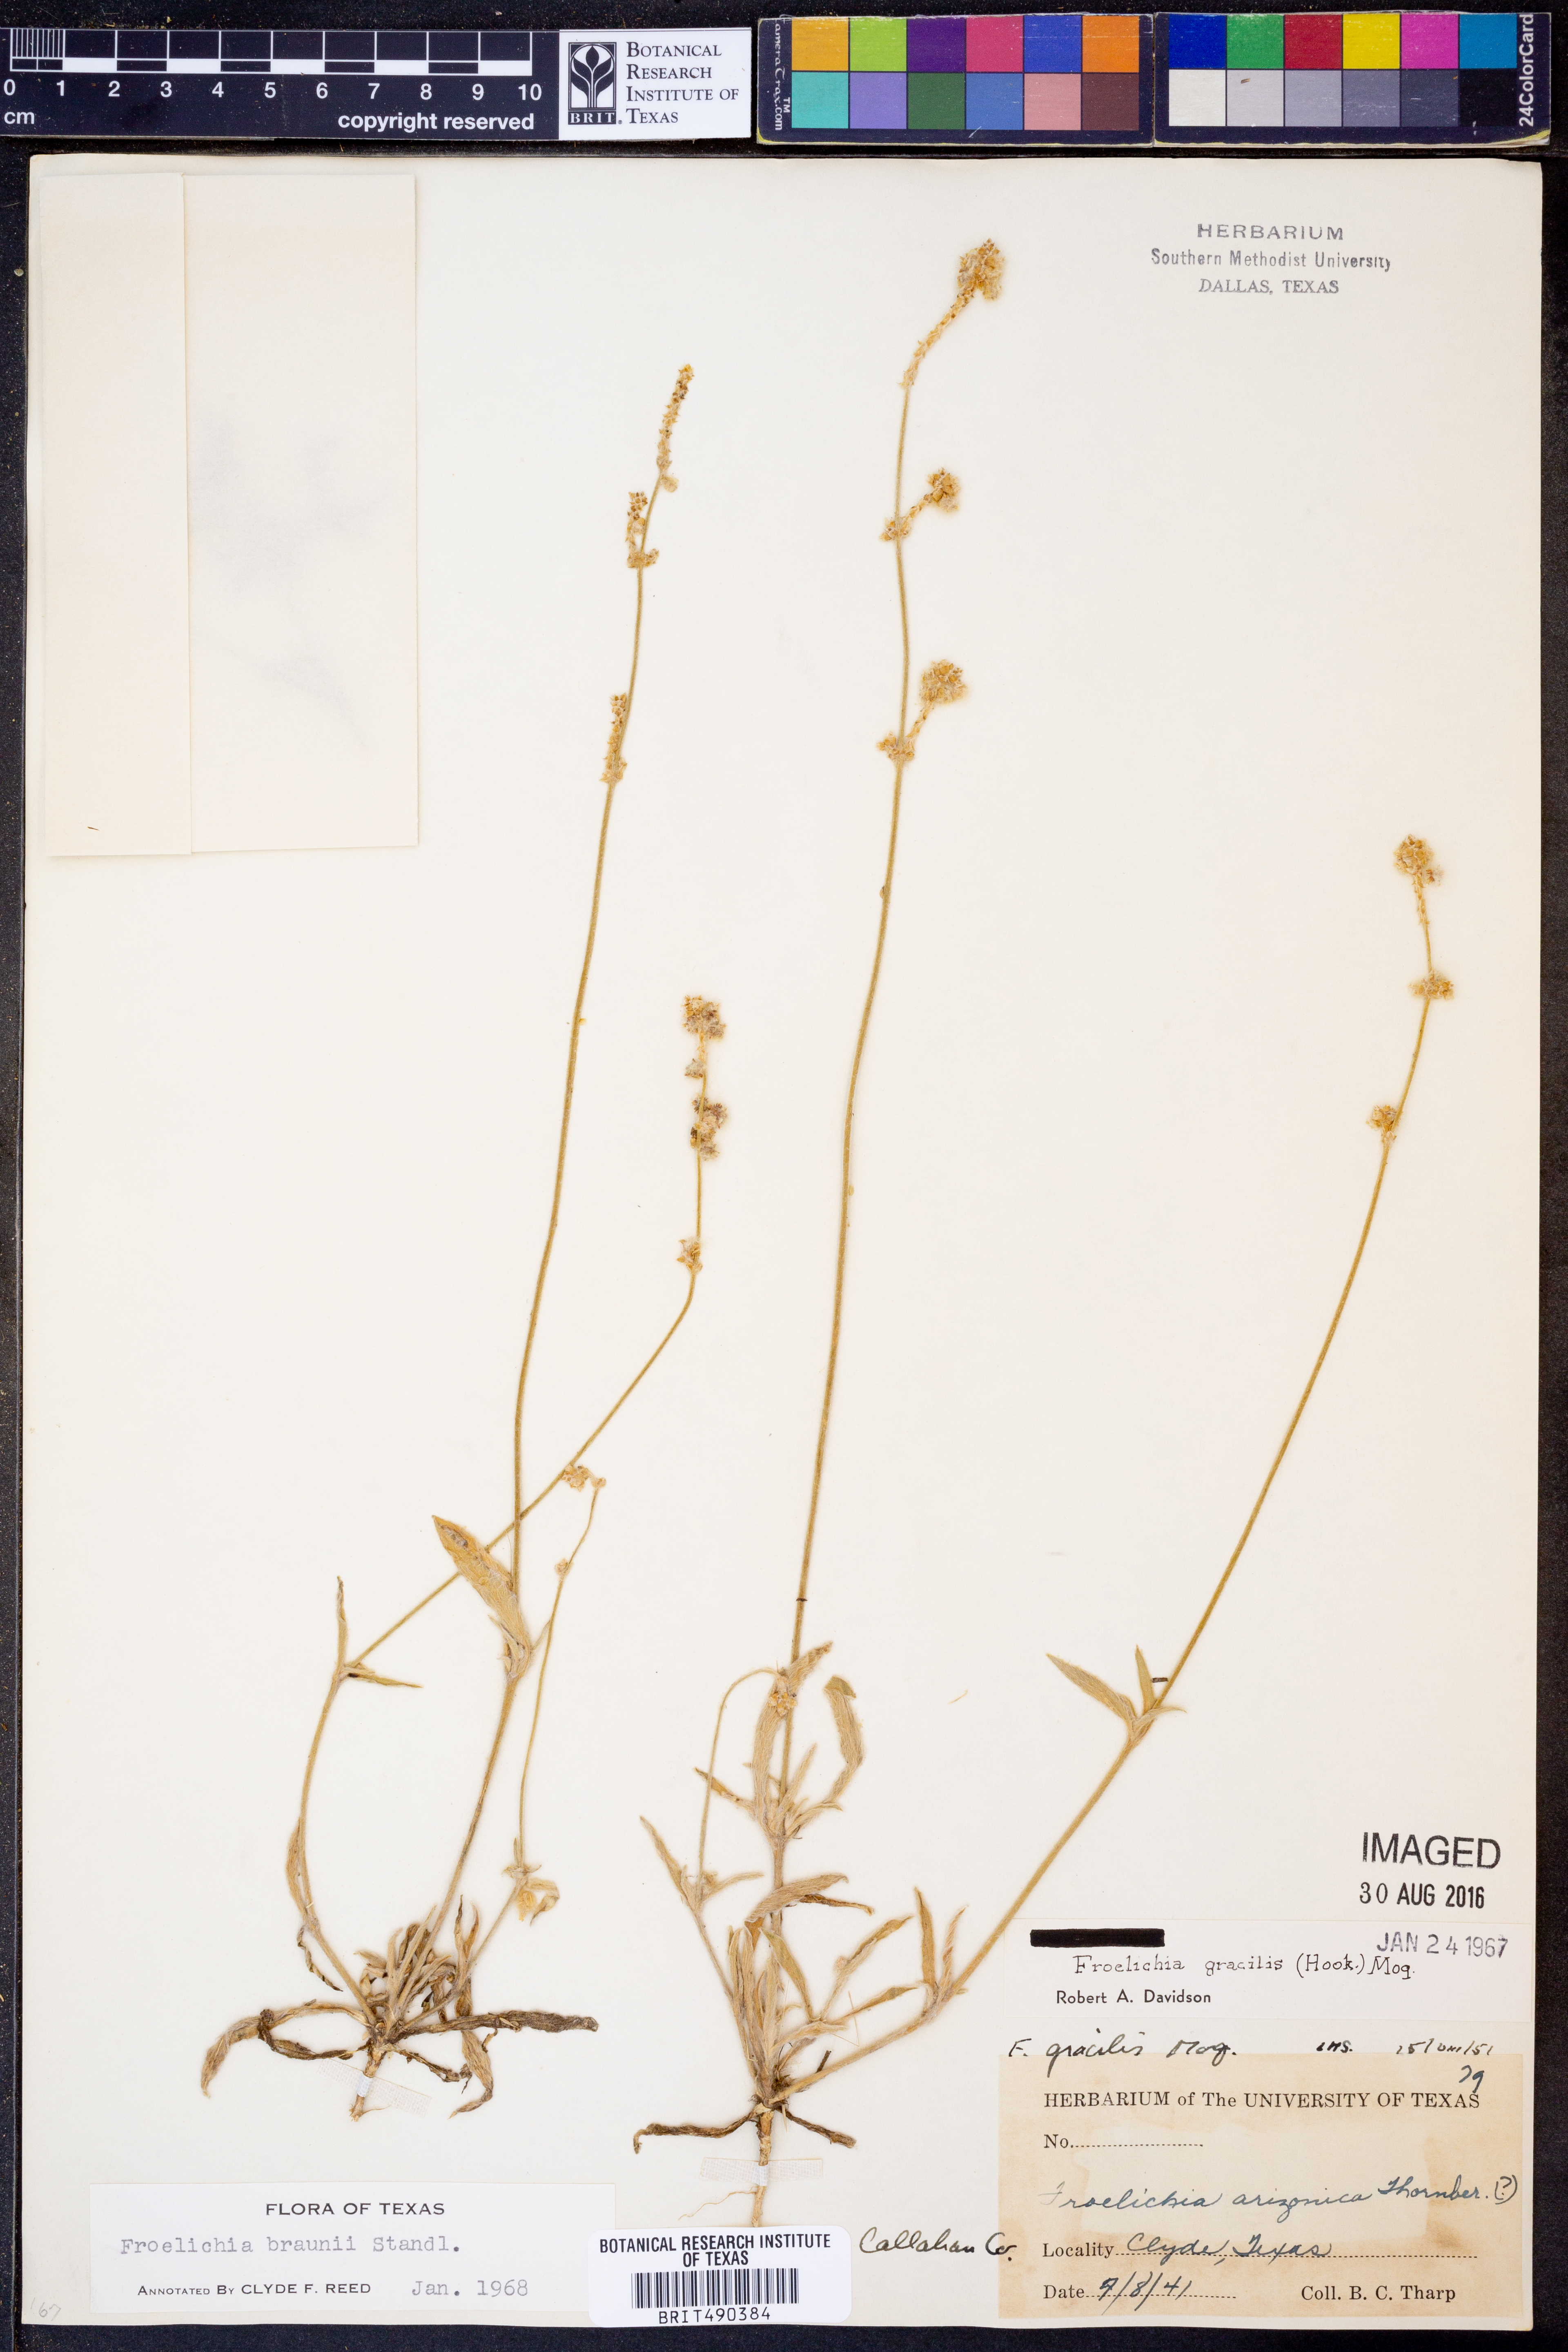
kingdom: Plantae
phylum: Tracheophyta
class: Magnoliopsida
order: Caryophyllales
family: Amaranthaceae
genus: Froelichia
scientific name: Froelichia gracilis
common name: Slender cottonweed
